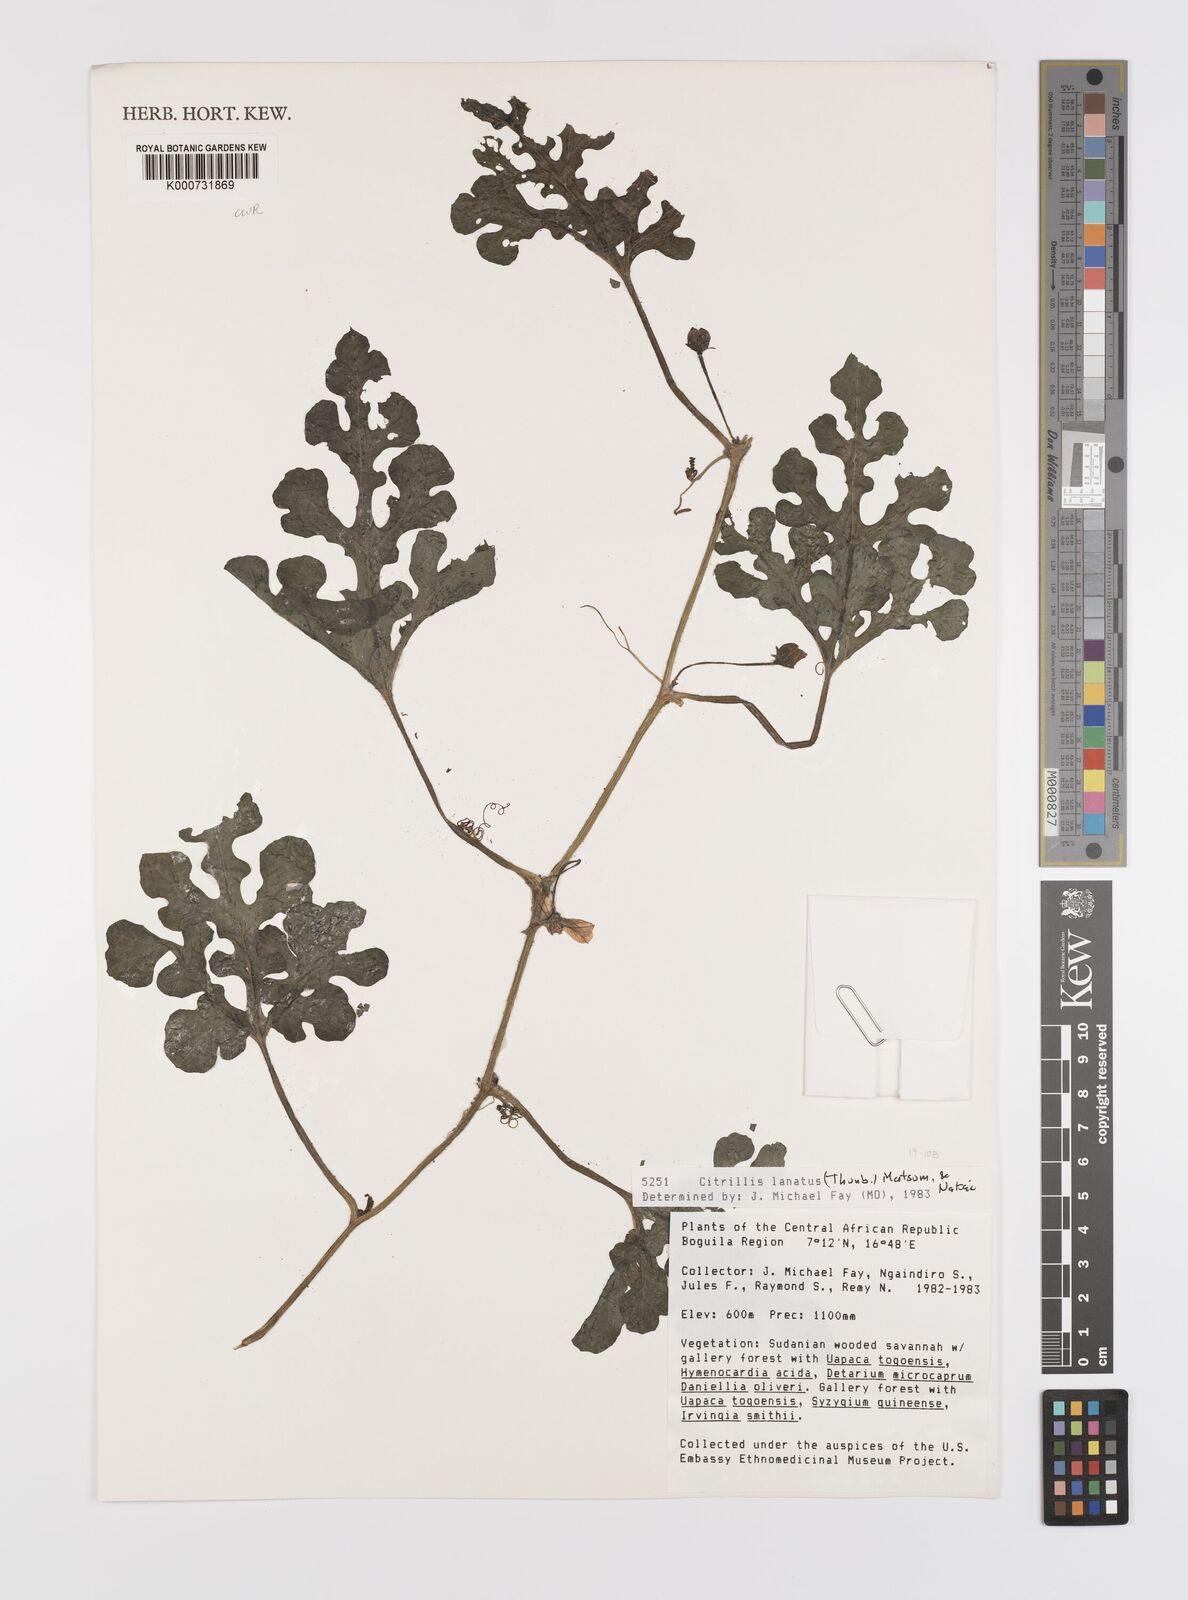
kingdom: Plantae
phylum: Tracheophyta
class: Magnoliopsida
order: Cucurbitales
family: Cucurbitaceae
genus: Citrullus
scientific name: Citrullus lanatus
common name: Watermelon
